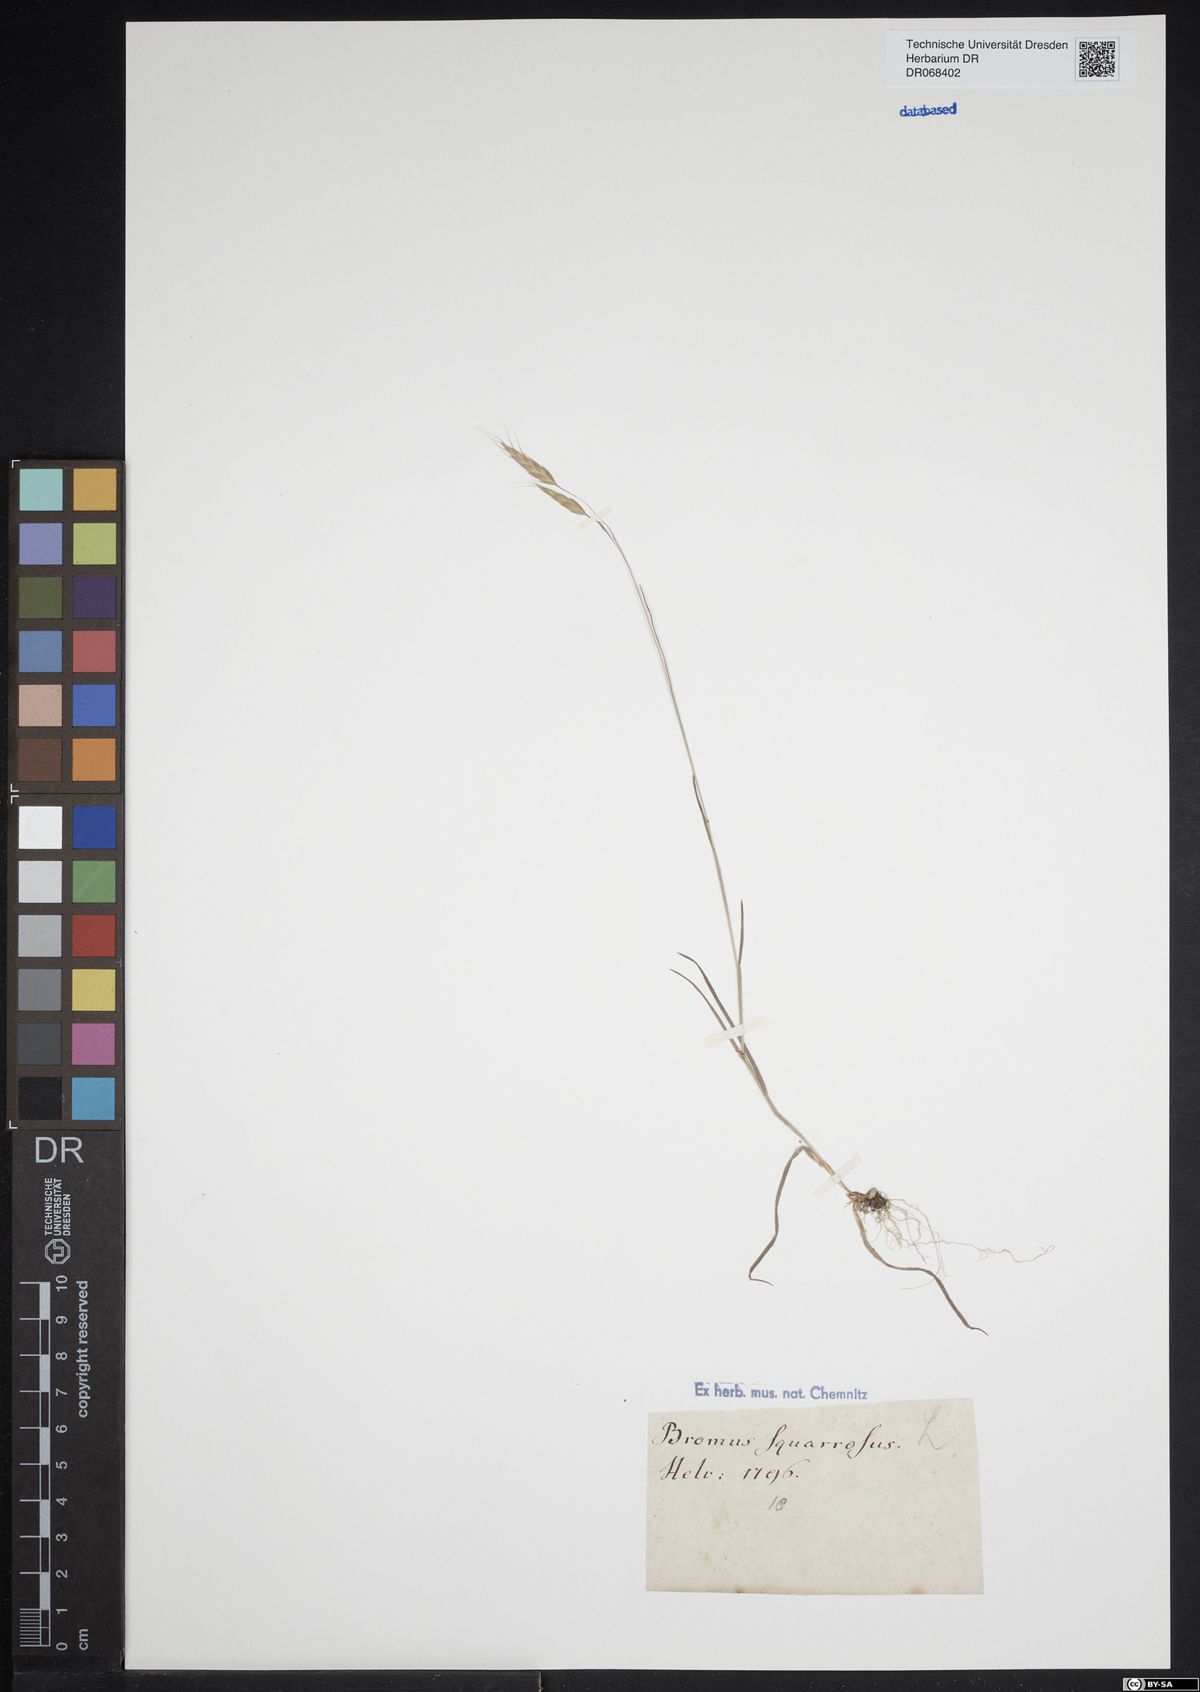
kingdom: Plantae
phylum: Tracheophyta
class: Liliopsida
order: Poales
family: Poaceae
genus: Bromus
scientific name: Bromus squarrosus
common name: Corn brome
